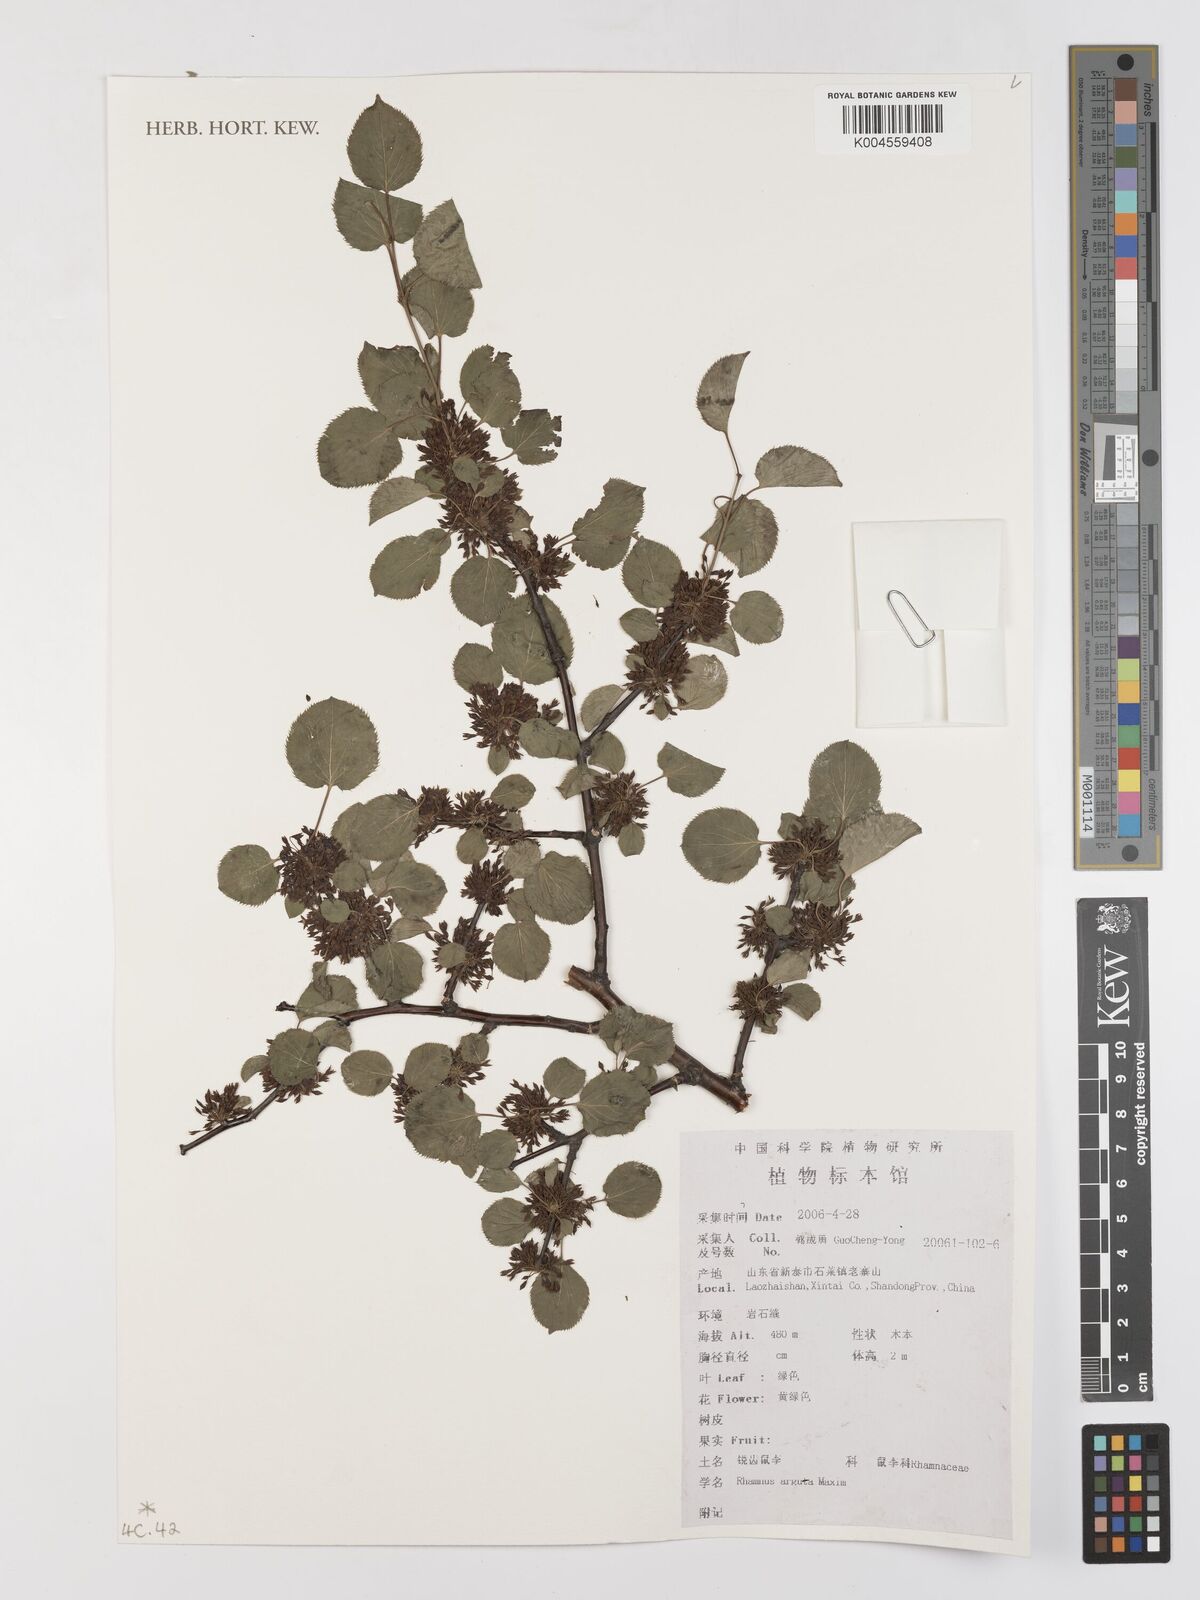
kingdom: Plantae
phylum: Tracheophyta
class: Magnoliopsida
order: Rosales
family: Rhamnaceae
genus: Rhamnus
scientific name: Rhamnus arguta
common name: Sharp-tooth buckthorn
